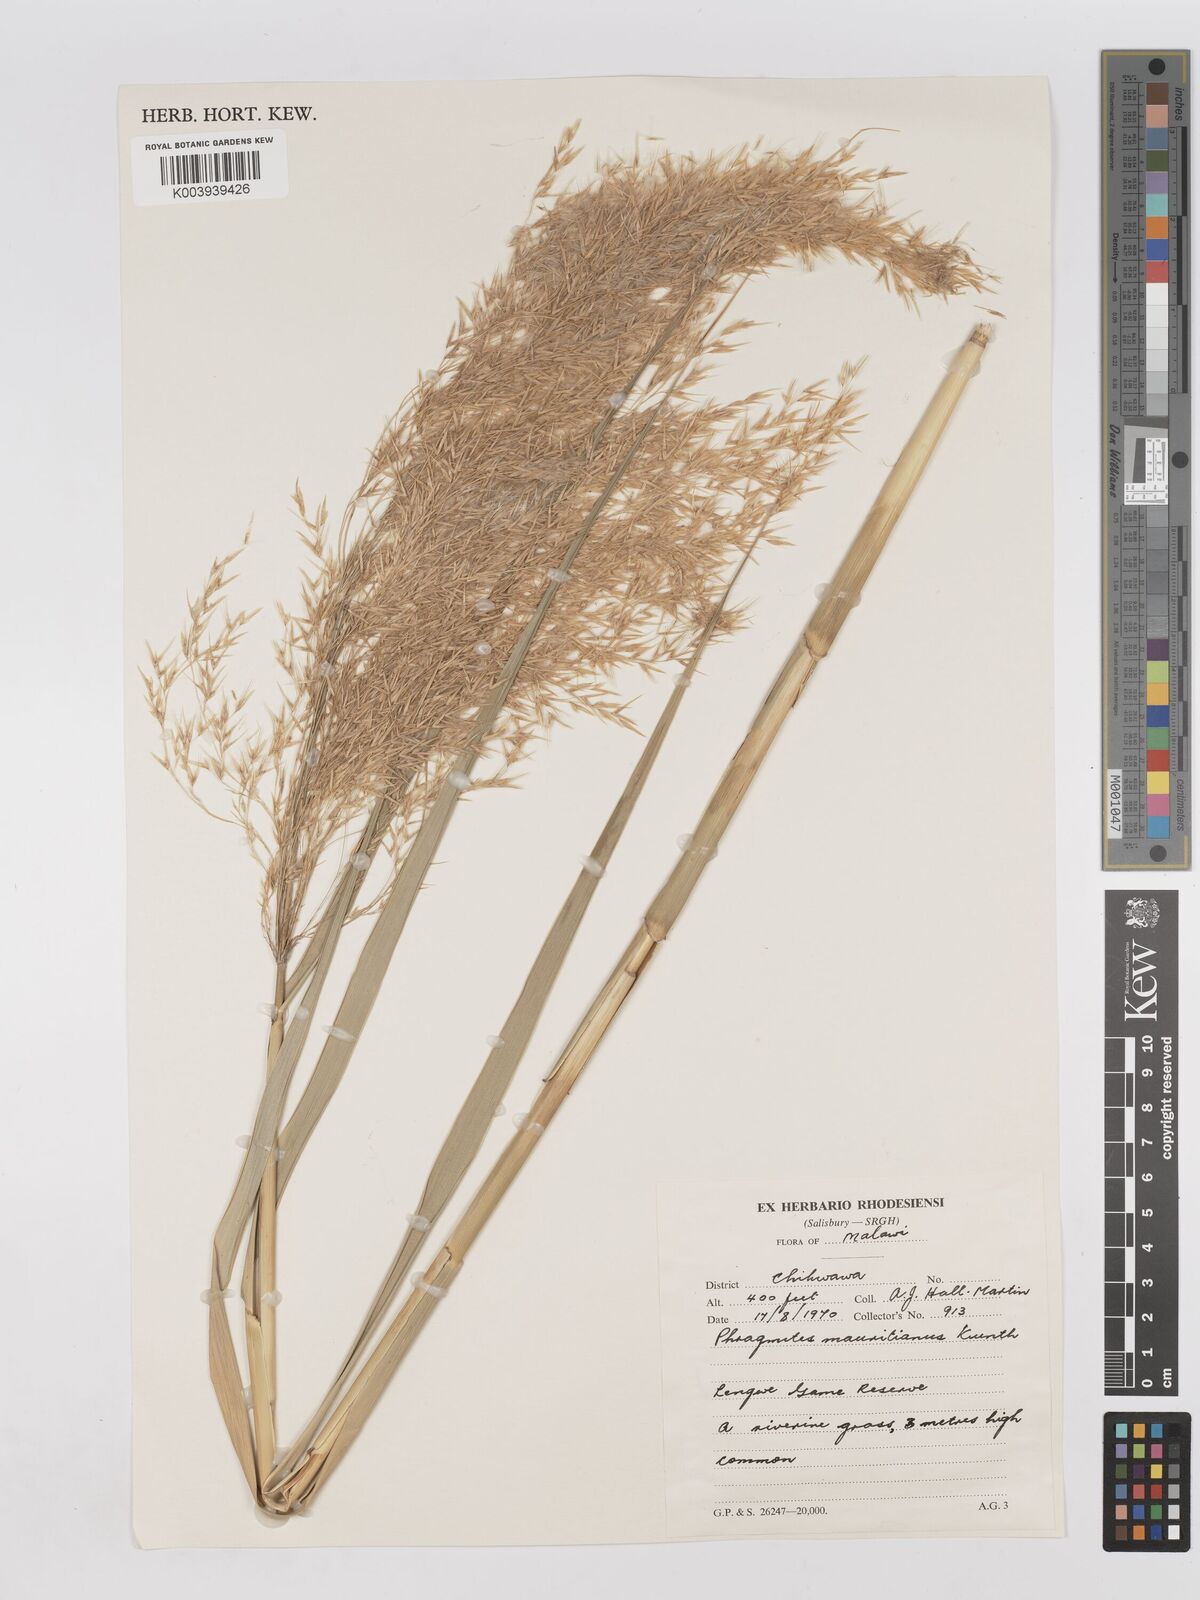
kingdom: Plantae
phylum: Tracheophyta
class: Liliopsida
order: Poales
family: Poaceae
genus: Phragmites
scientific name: Phragmites mauritianus
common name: Reed grass
